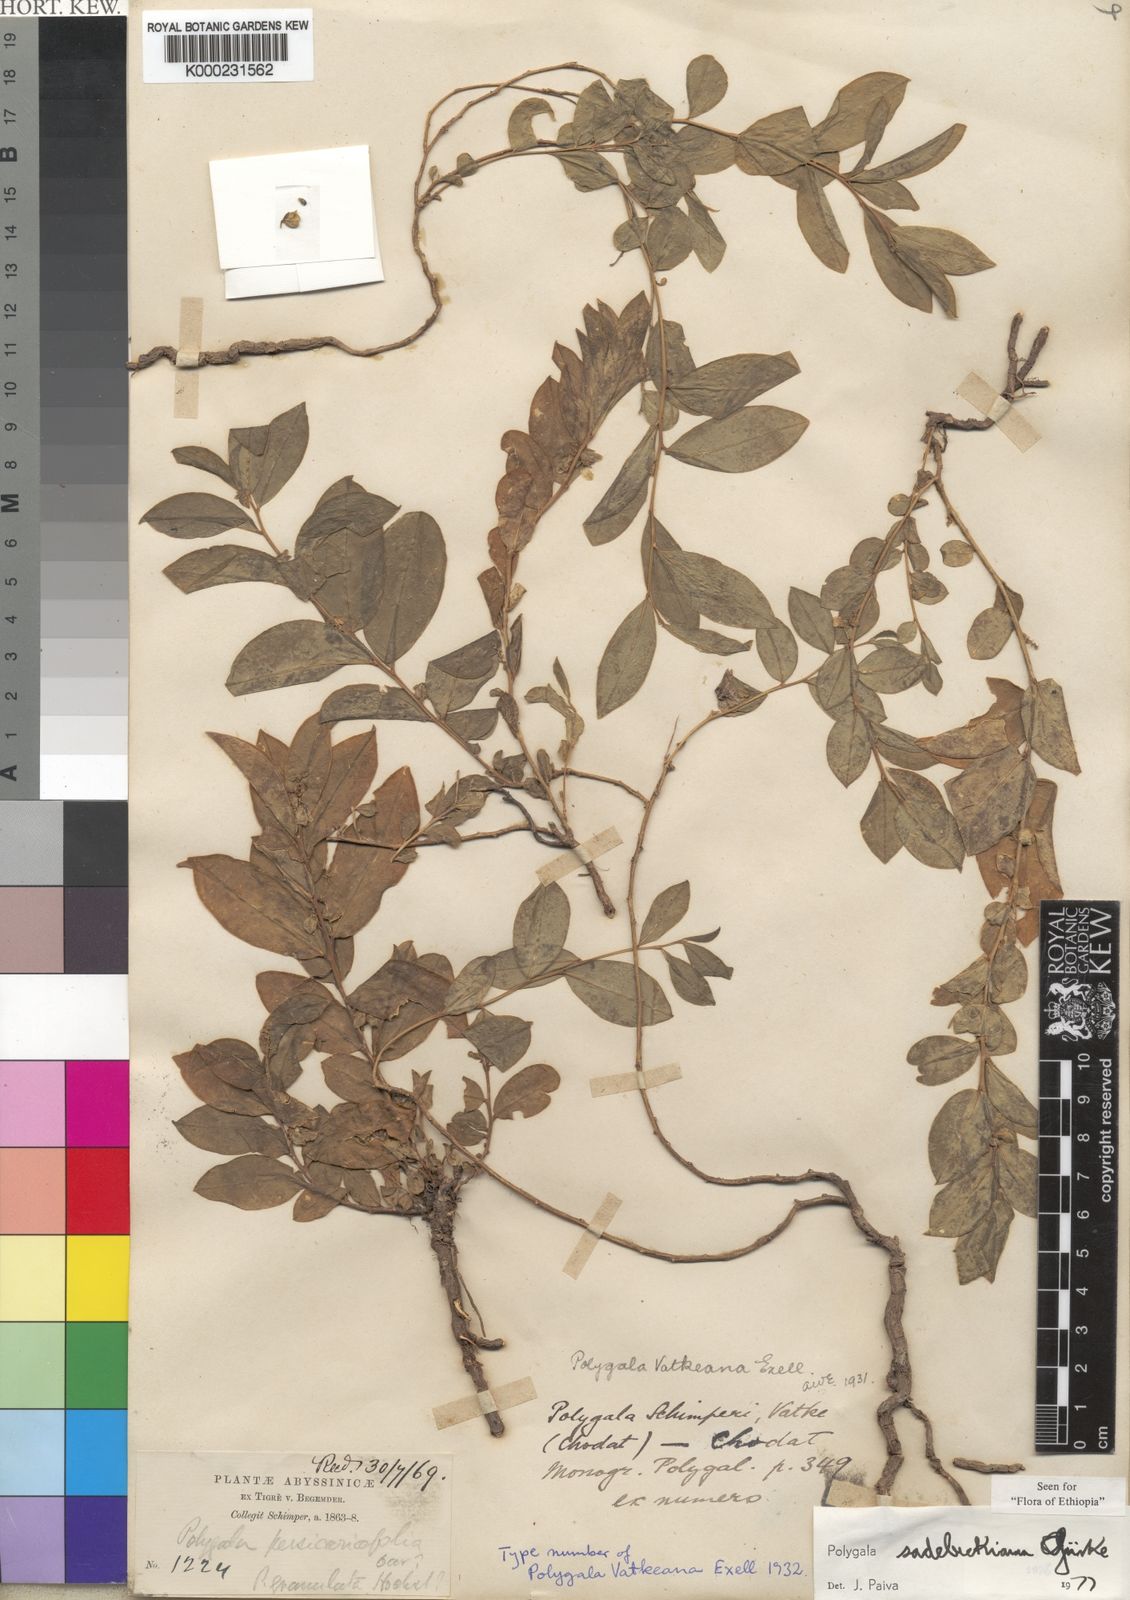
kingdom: Plantae
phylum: Tracheophyta
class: Magnoliopsida
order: Fabales
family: Polygalaceae
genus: Polygala
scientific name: Polygala
